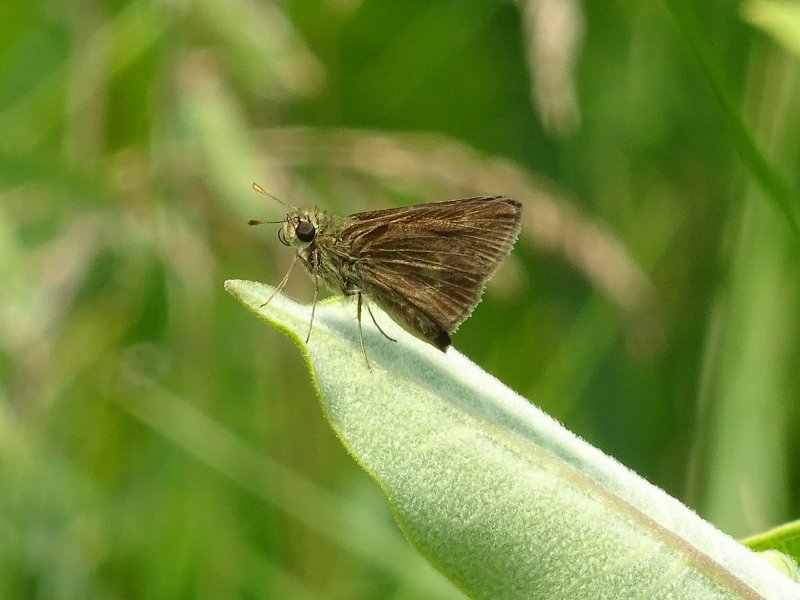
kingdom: Animalia
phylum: Arthropoda
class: Insecta
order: Lepidoptera
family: Hesperiidae
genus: Polites
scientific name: Polites egeremet
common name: Northern Broken-Dash
